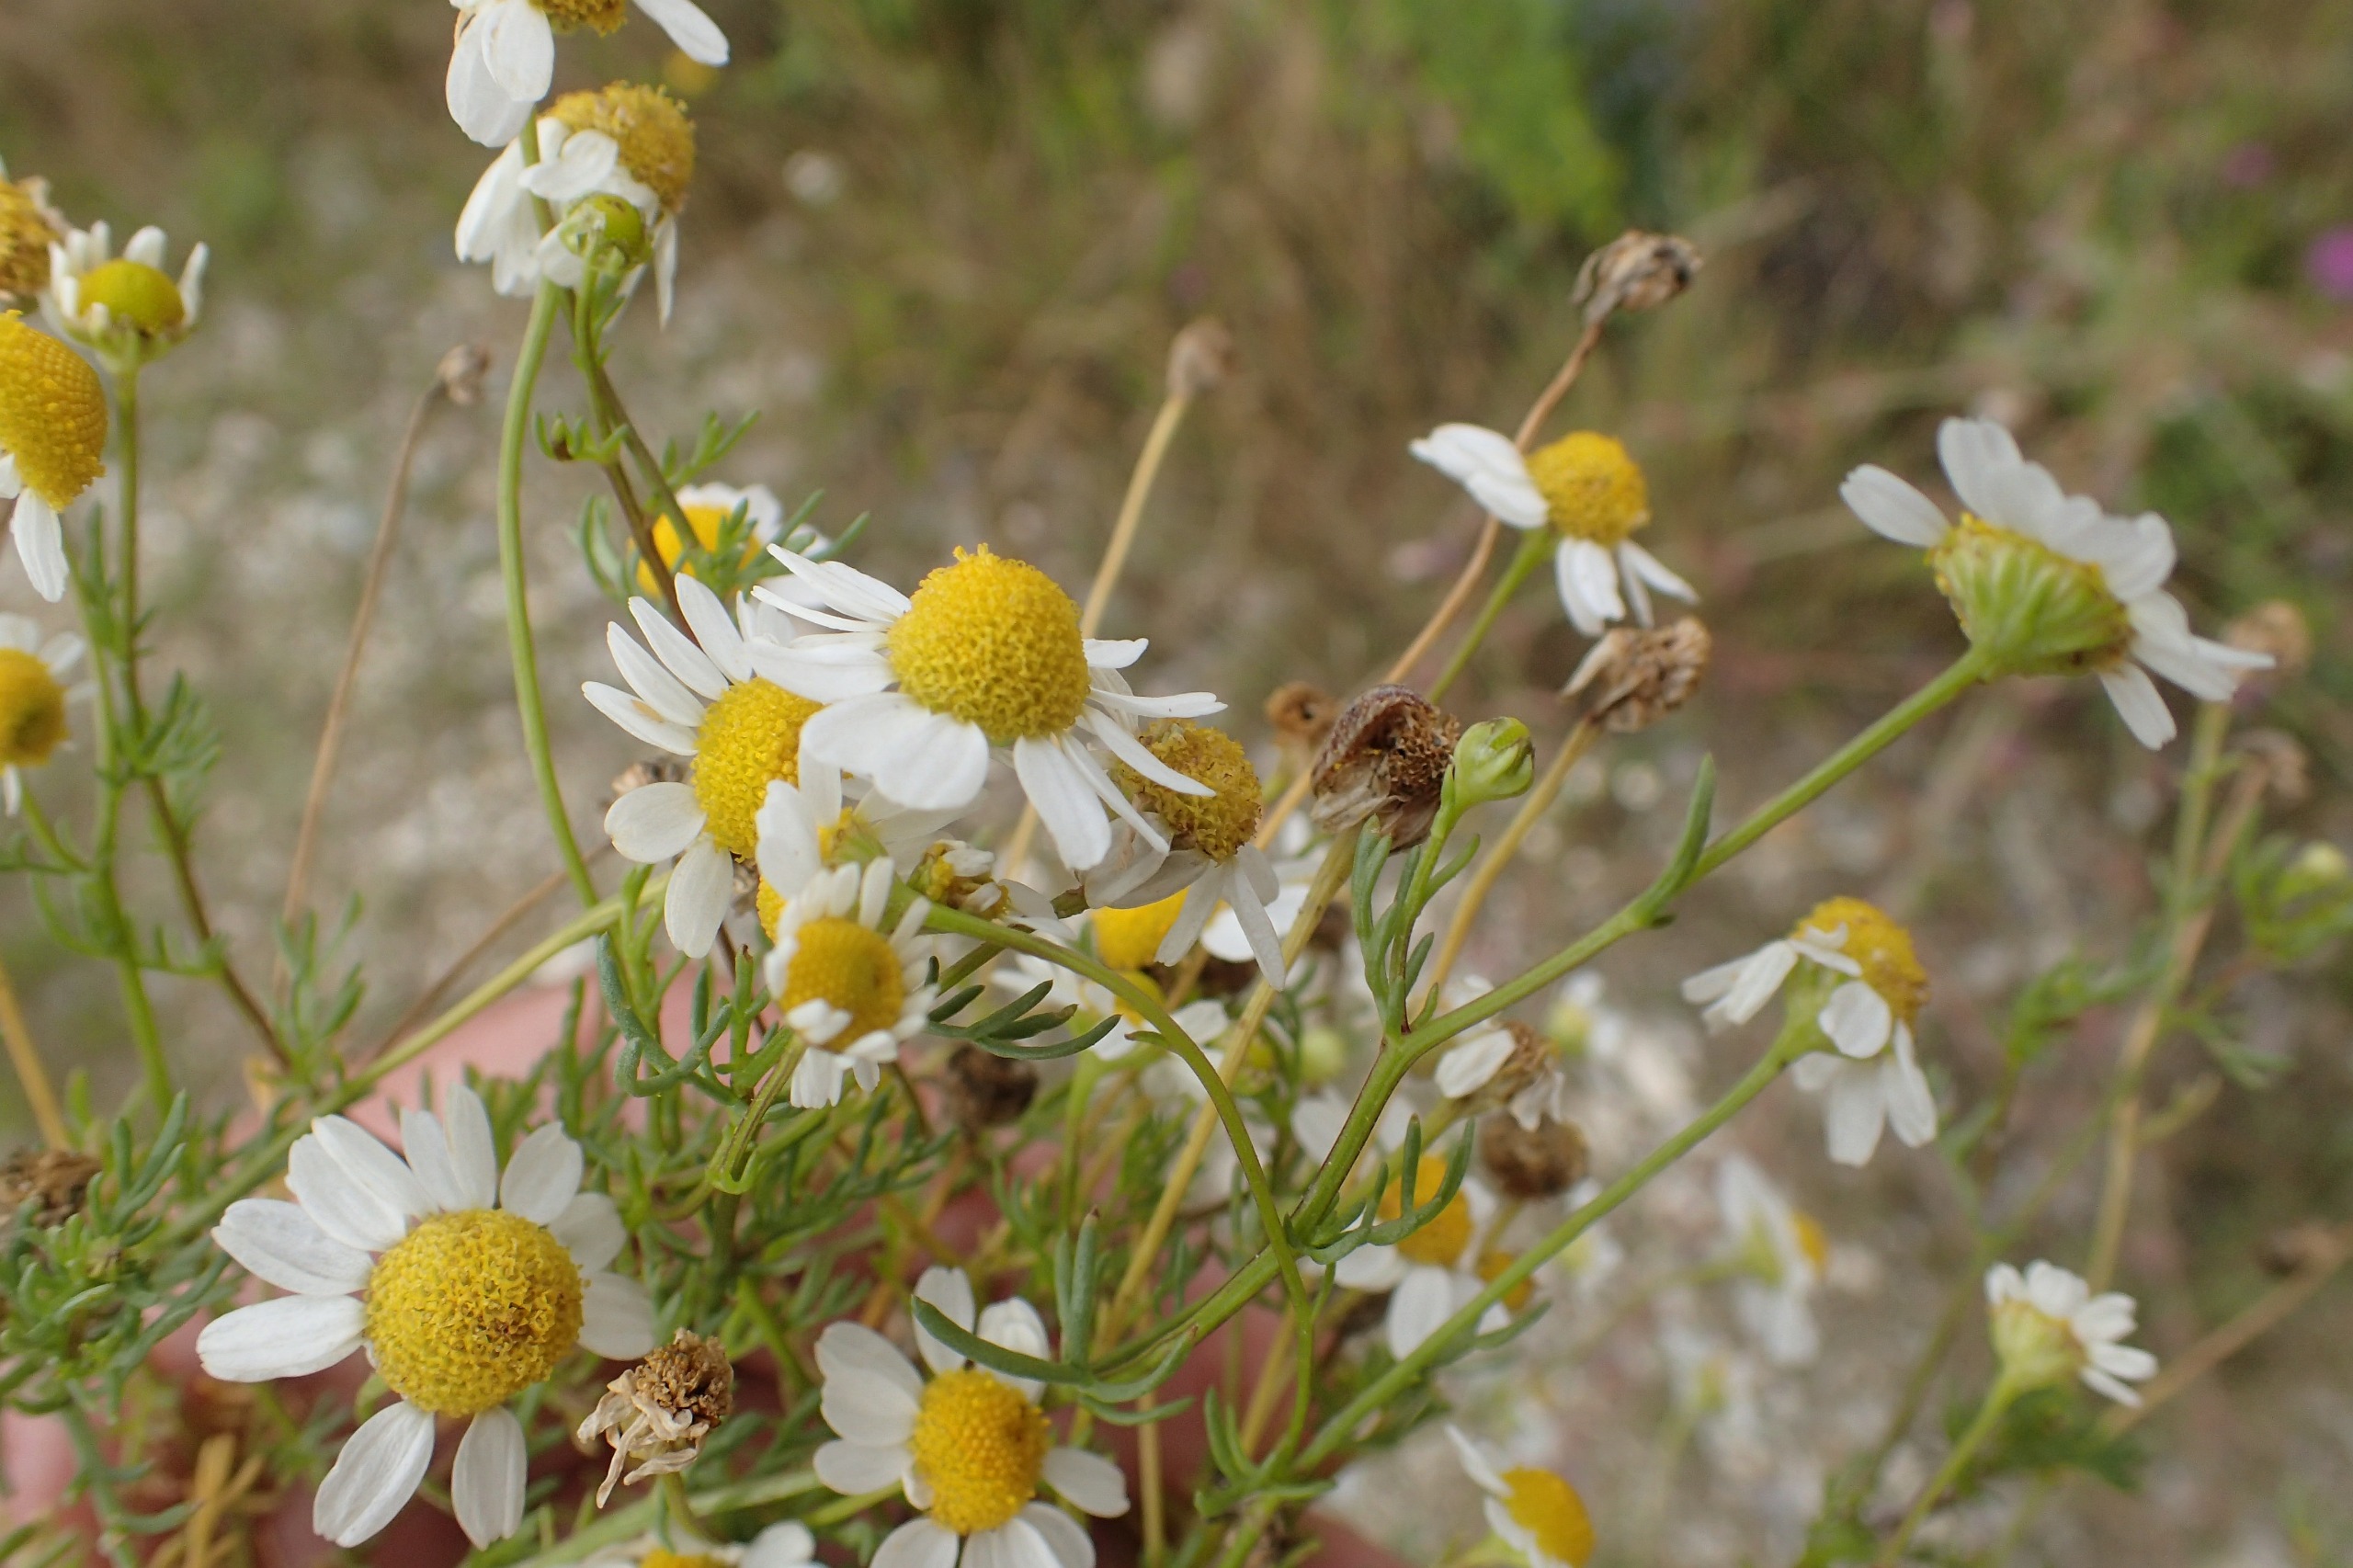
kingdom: Plantae
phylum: Tracheophyta
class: Magnoliopsida
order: Asterales
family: Asteraceae
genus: Matricaria
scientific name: Matricaria chamomilla
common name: Vellugtende kamille
